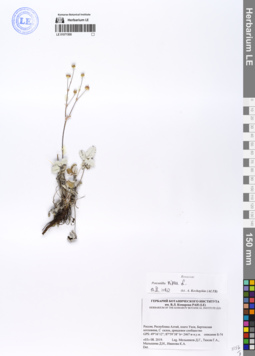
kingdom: Plantae
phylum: Tracheophyta
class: Magnoliopsida
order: Rosales
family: Rosaceae
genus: Potentilla
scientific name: Potentilla nivea
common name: Snow cinquefoil
